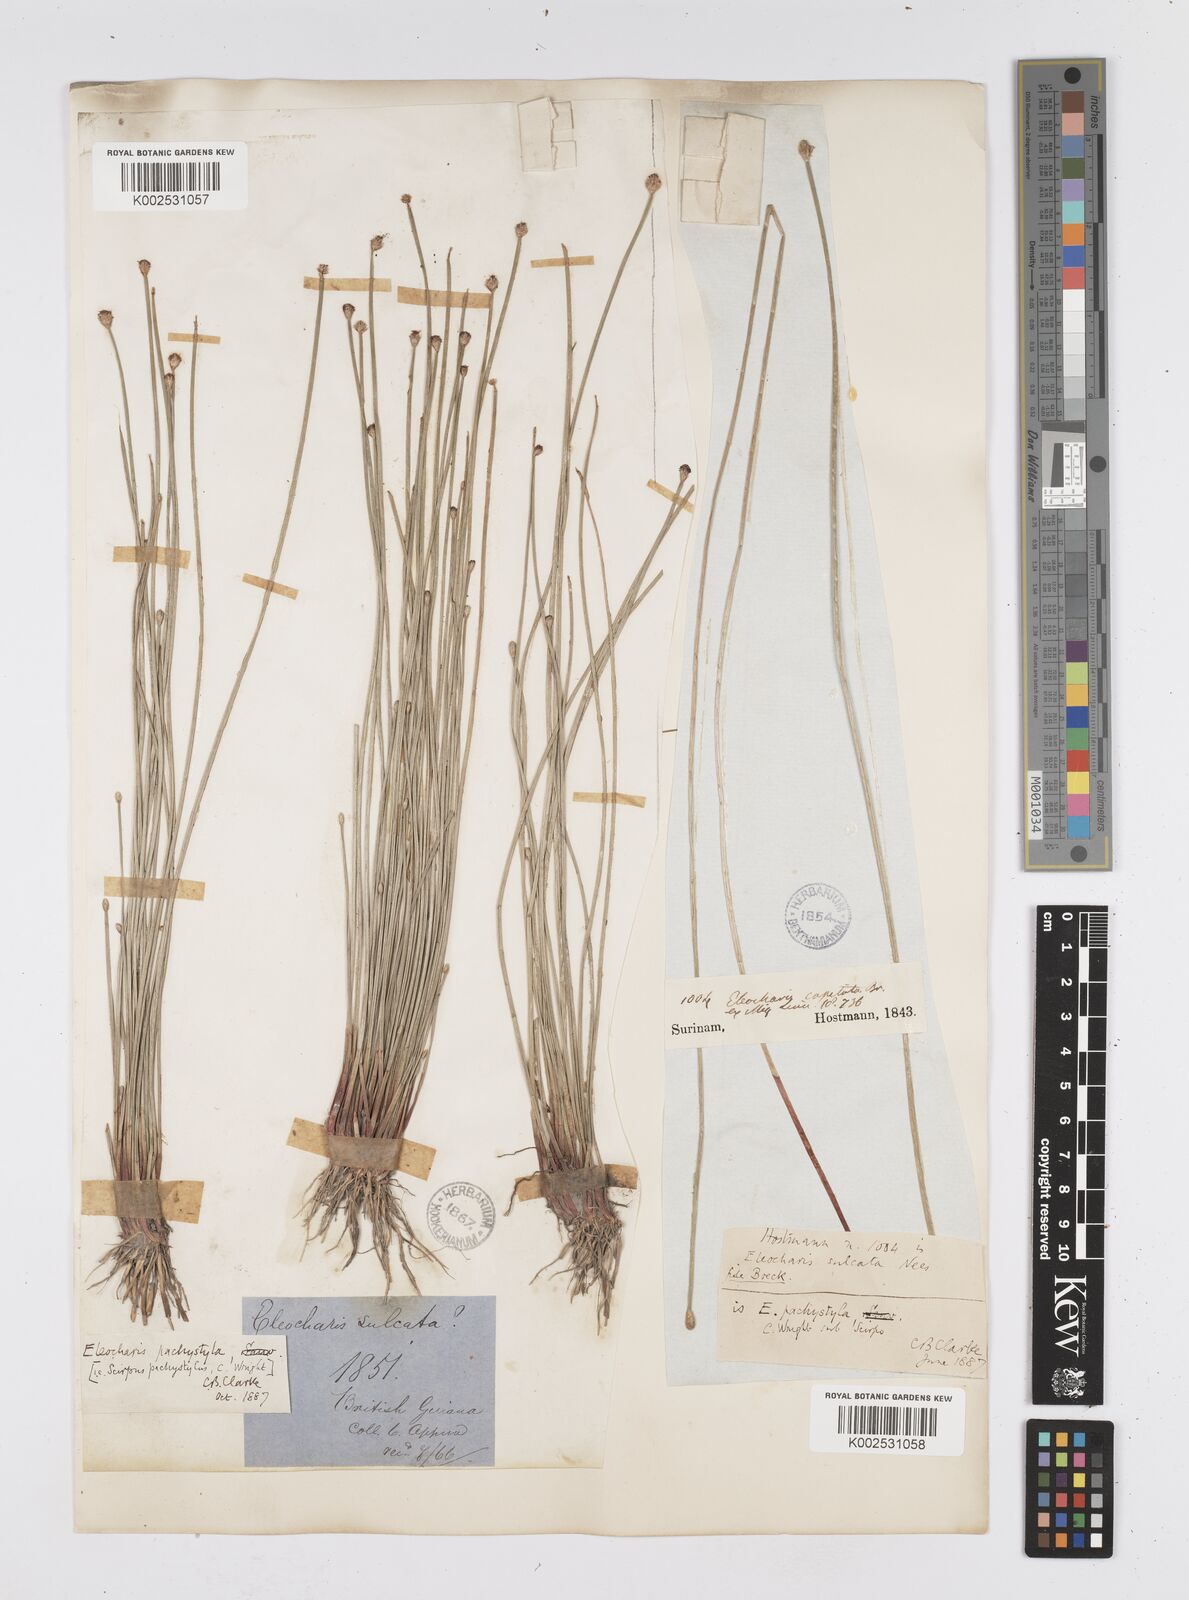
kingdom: Plantae
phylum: Tracheophyta
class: Liliopsida
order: Poales
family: Cyperaceae
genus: Eleocharis
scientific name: Eleocharis pachystyla
